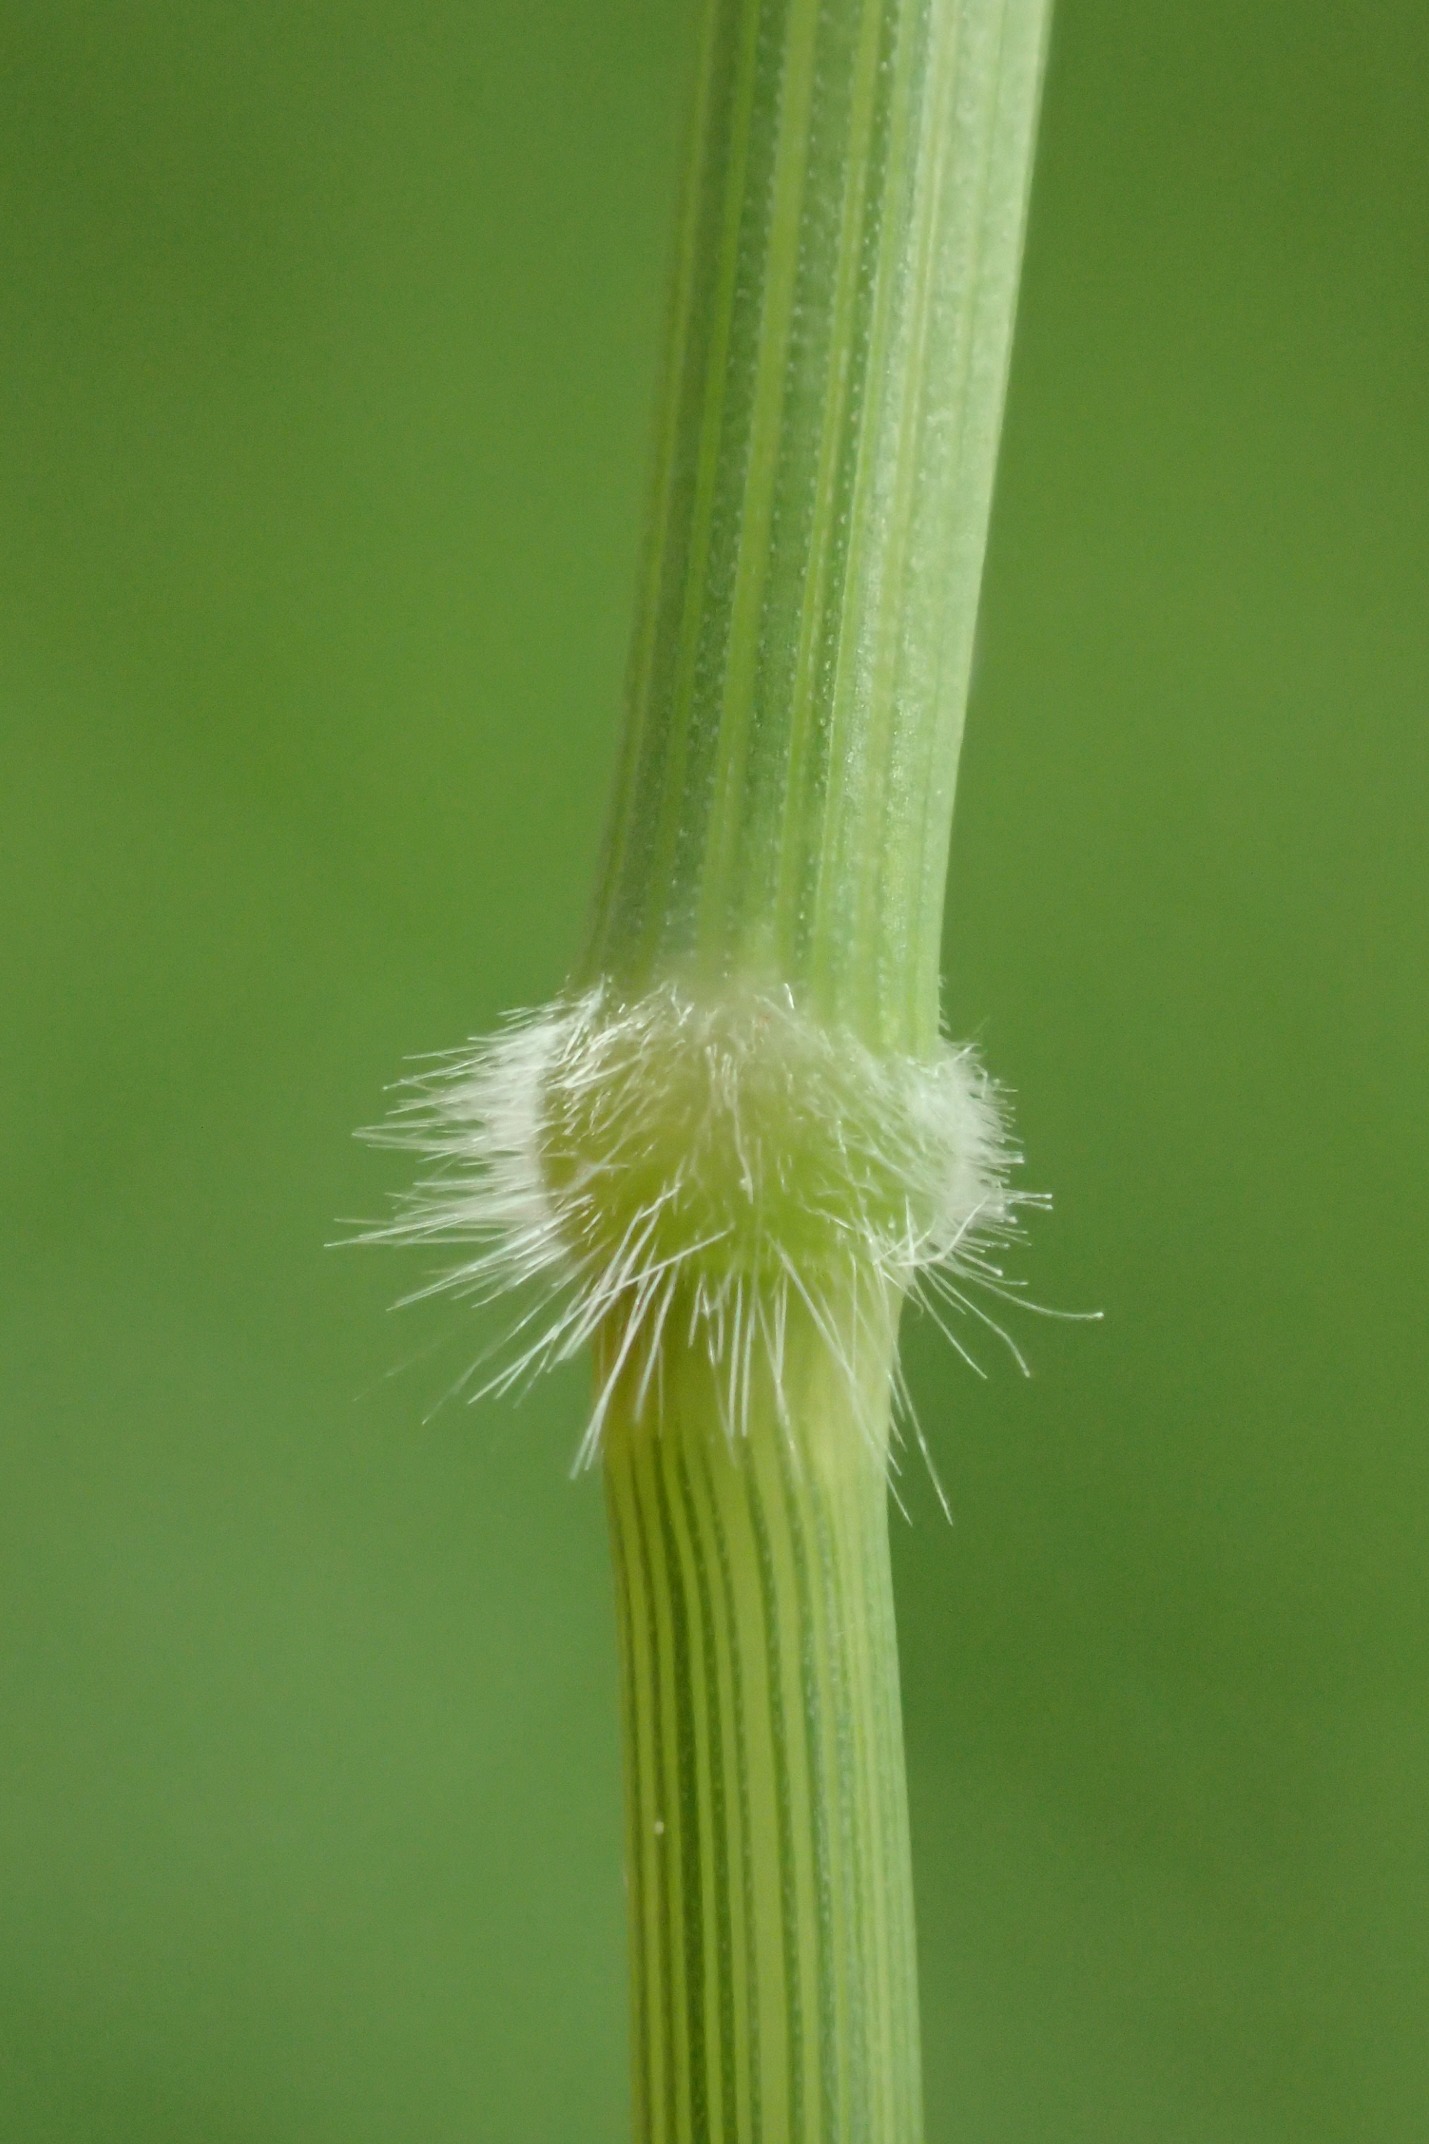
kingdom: Plantae
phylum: Tracheophyta
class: Liliopsida
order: Poales
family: Poaceae
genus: Holcus
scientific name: Holcus mollis
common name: Krybende hestegræs
